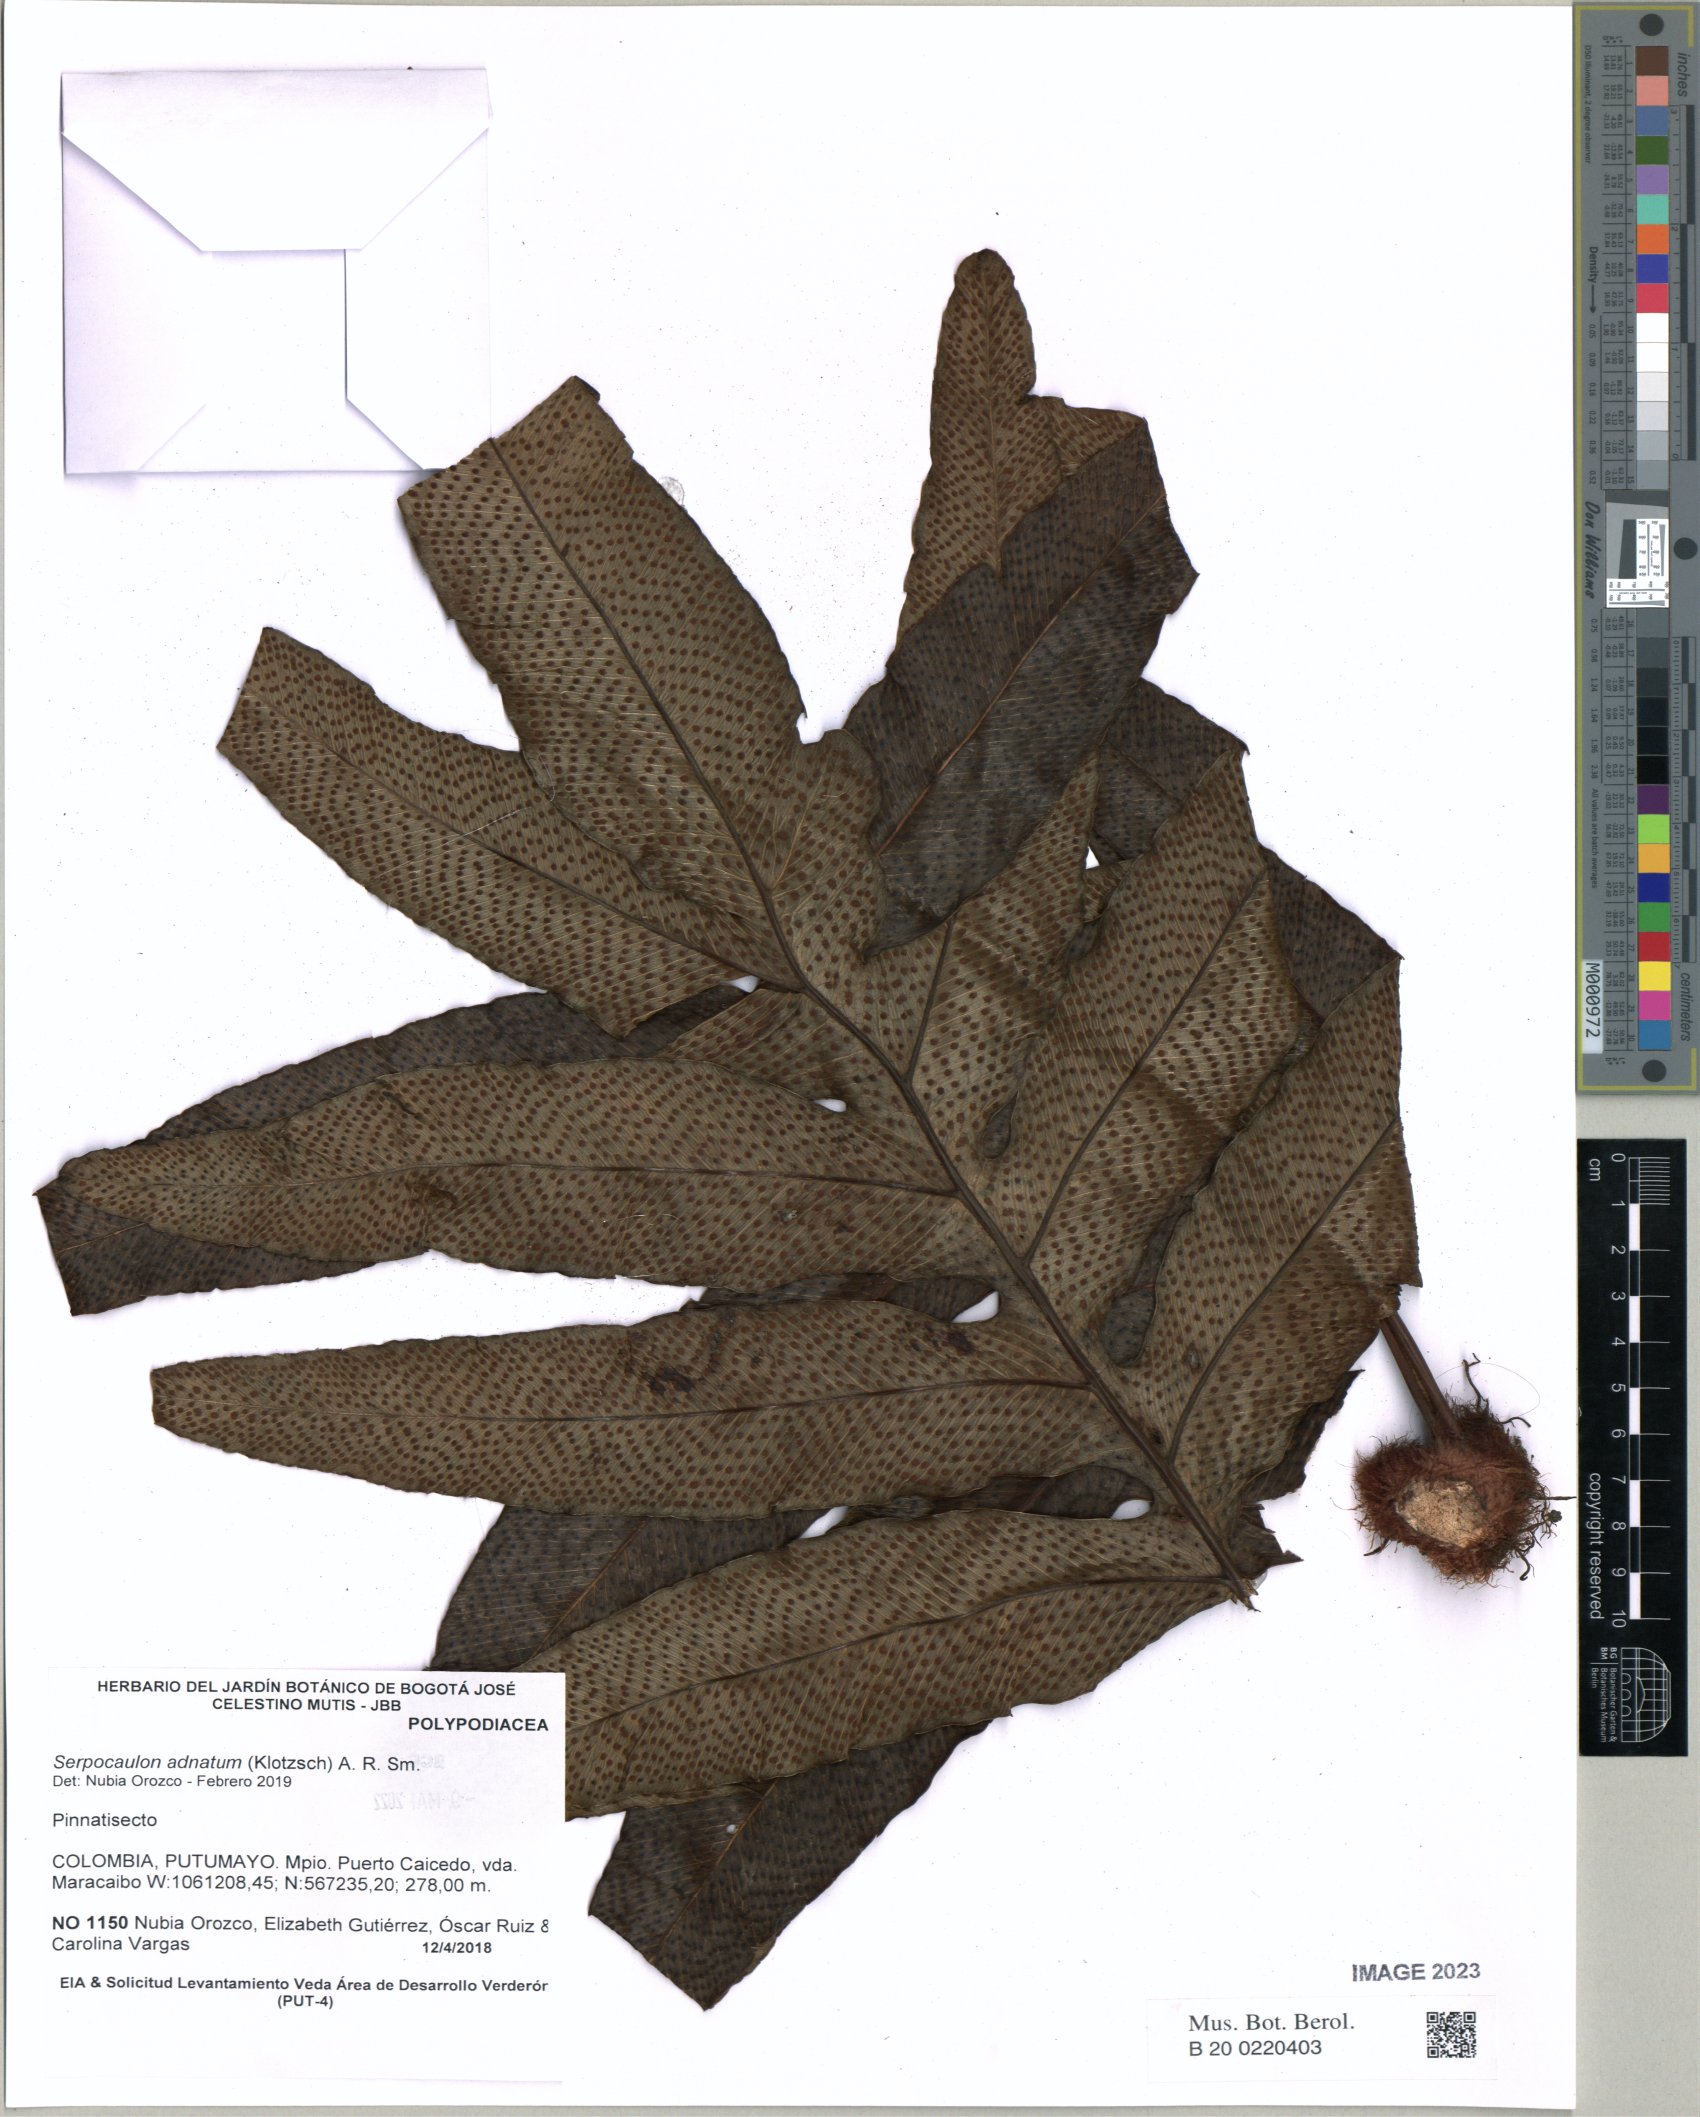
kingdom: Plantae
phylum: Tracheophyta
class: Polypodiopsida
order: Polypodiales
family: Polypodiaceae
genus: Serpocaulon
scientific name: Serpocaulon adnatum
